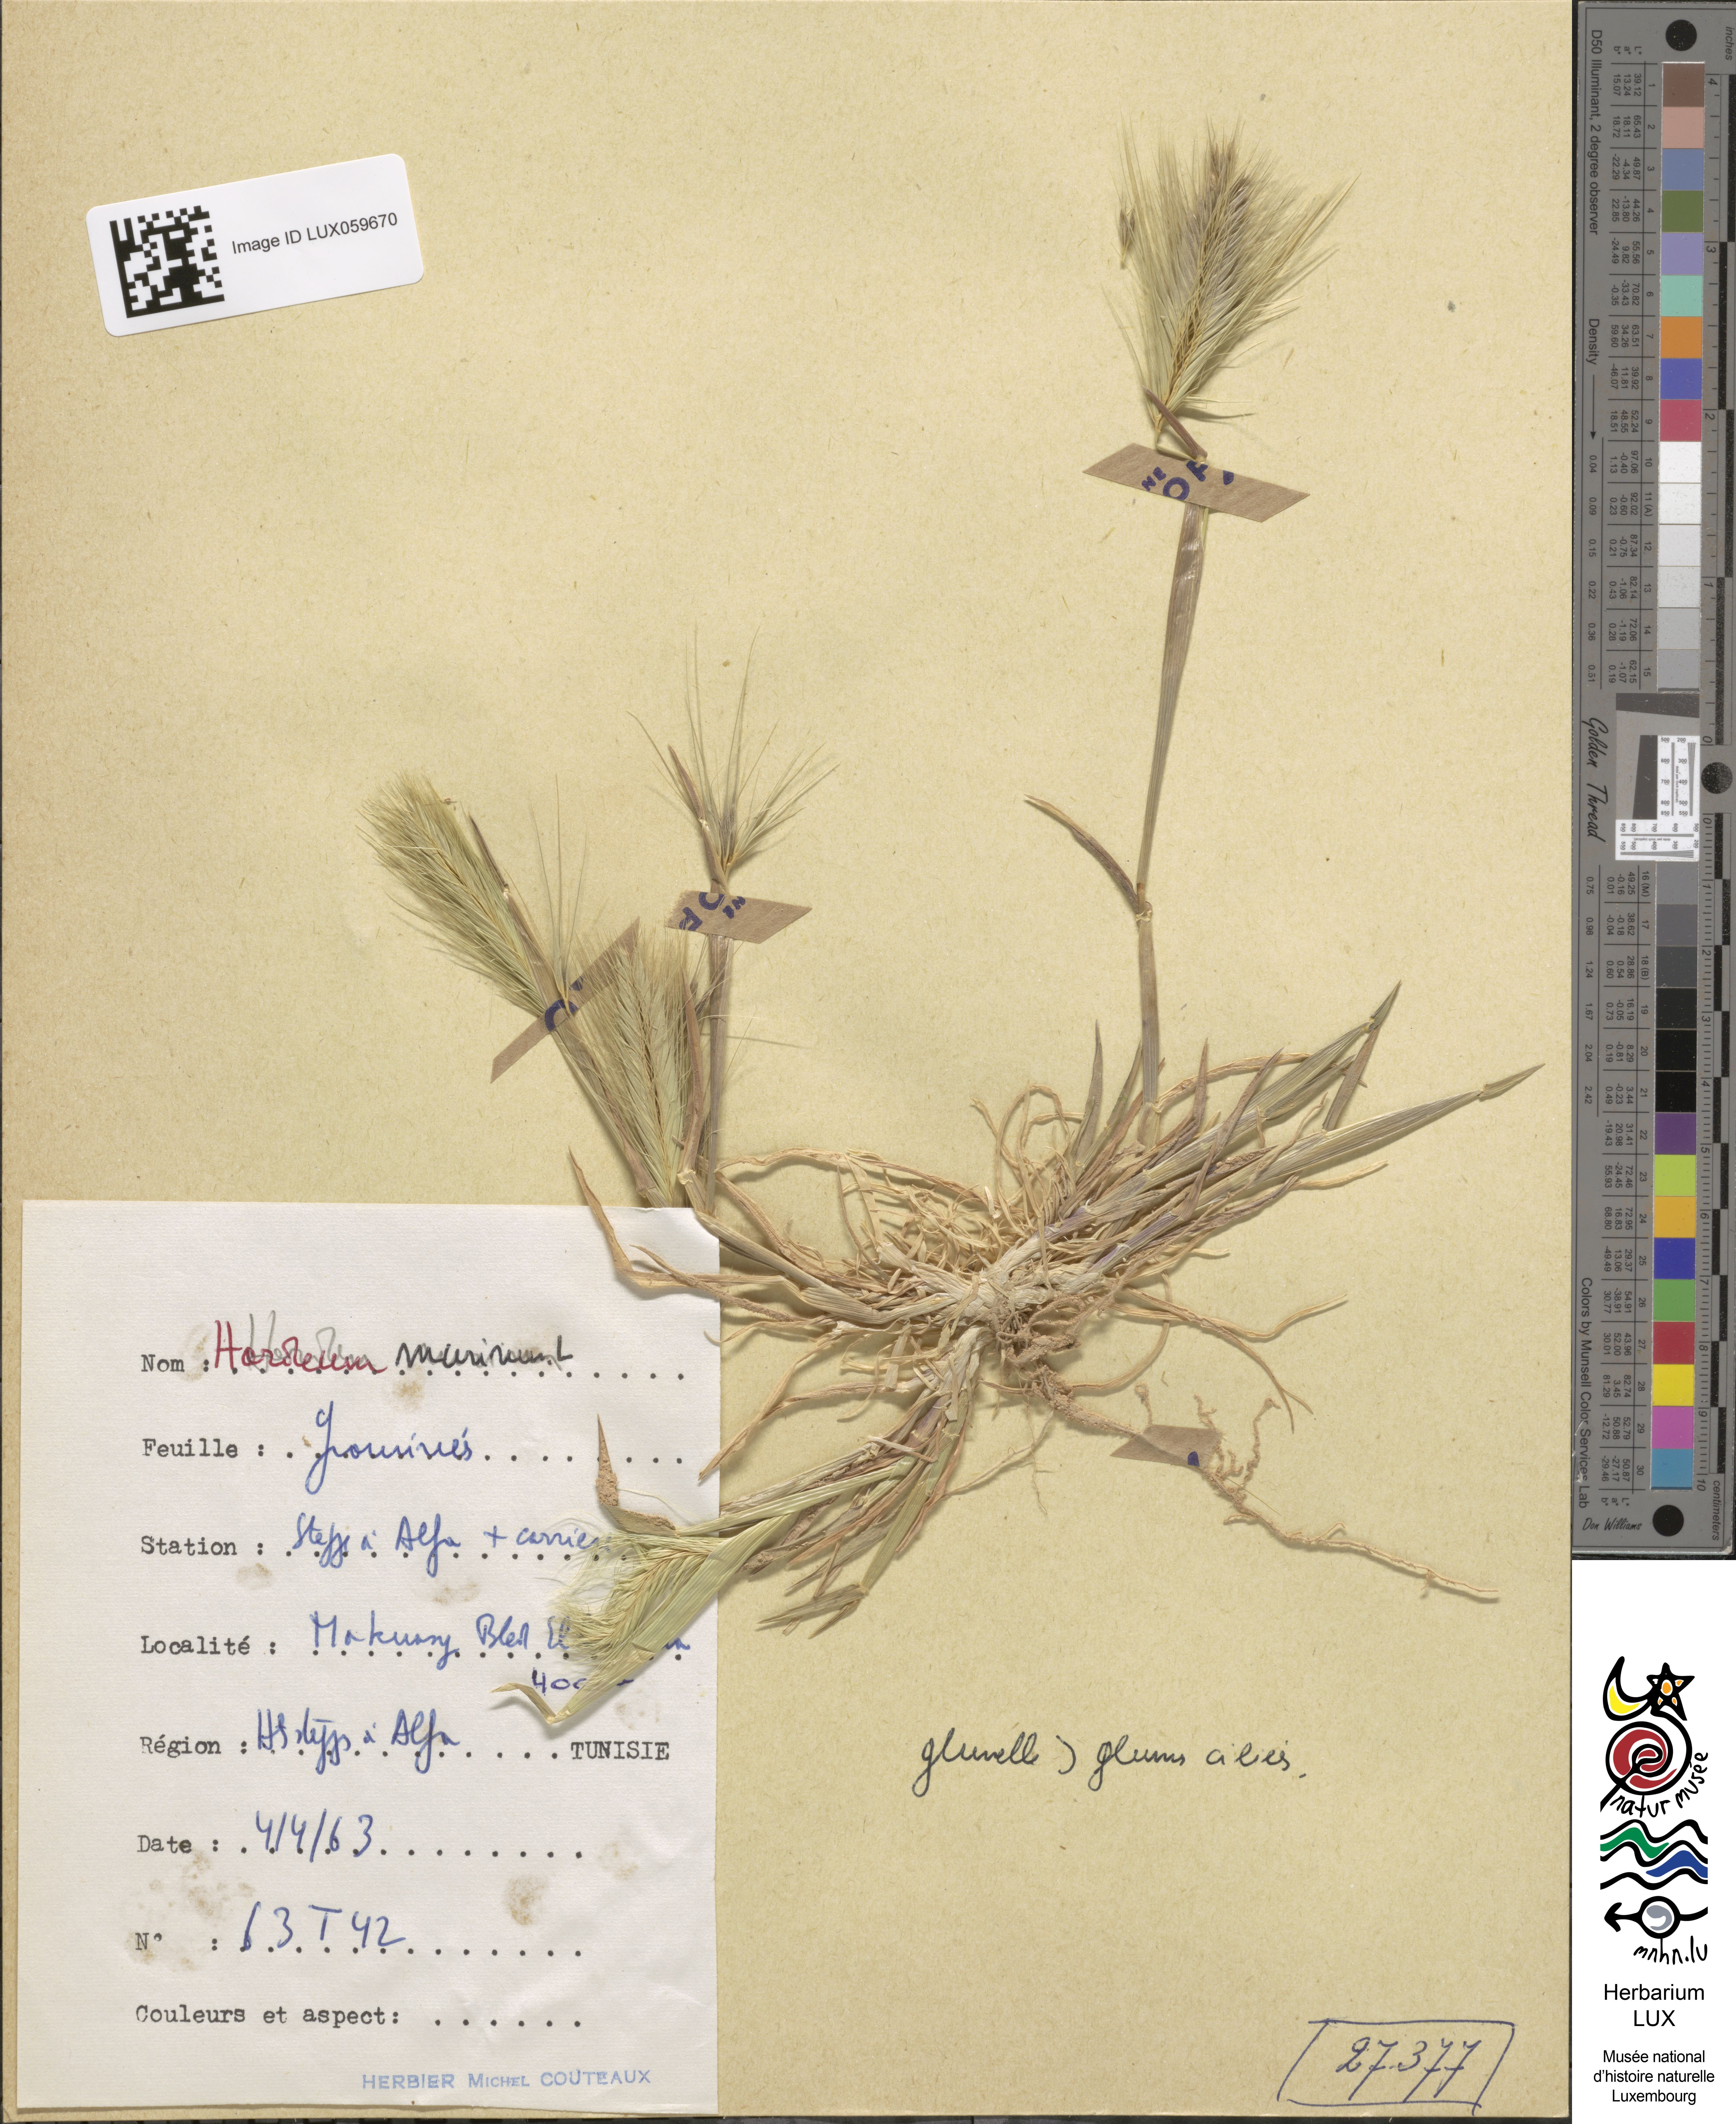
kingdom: Plantae
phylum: Tracheophyta
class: Liliopsida
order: Poales
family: Poaceae
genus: Hordeum
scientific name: Hordeum murinum
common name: Wall barley
